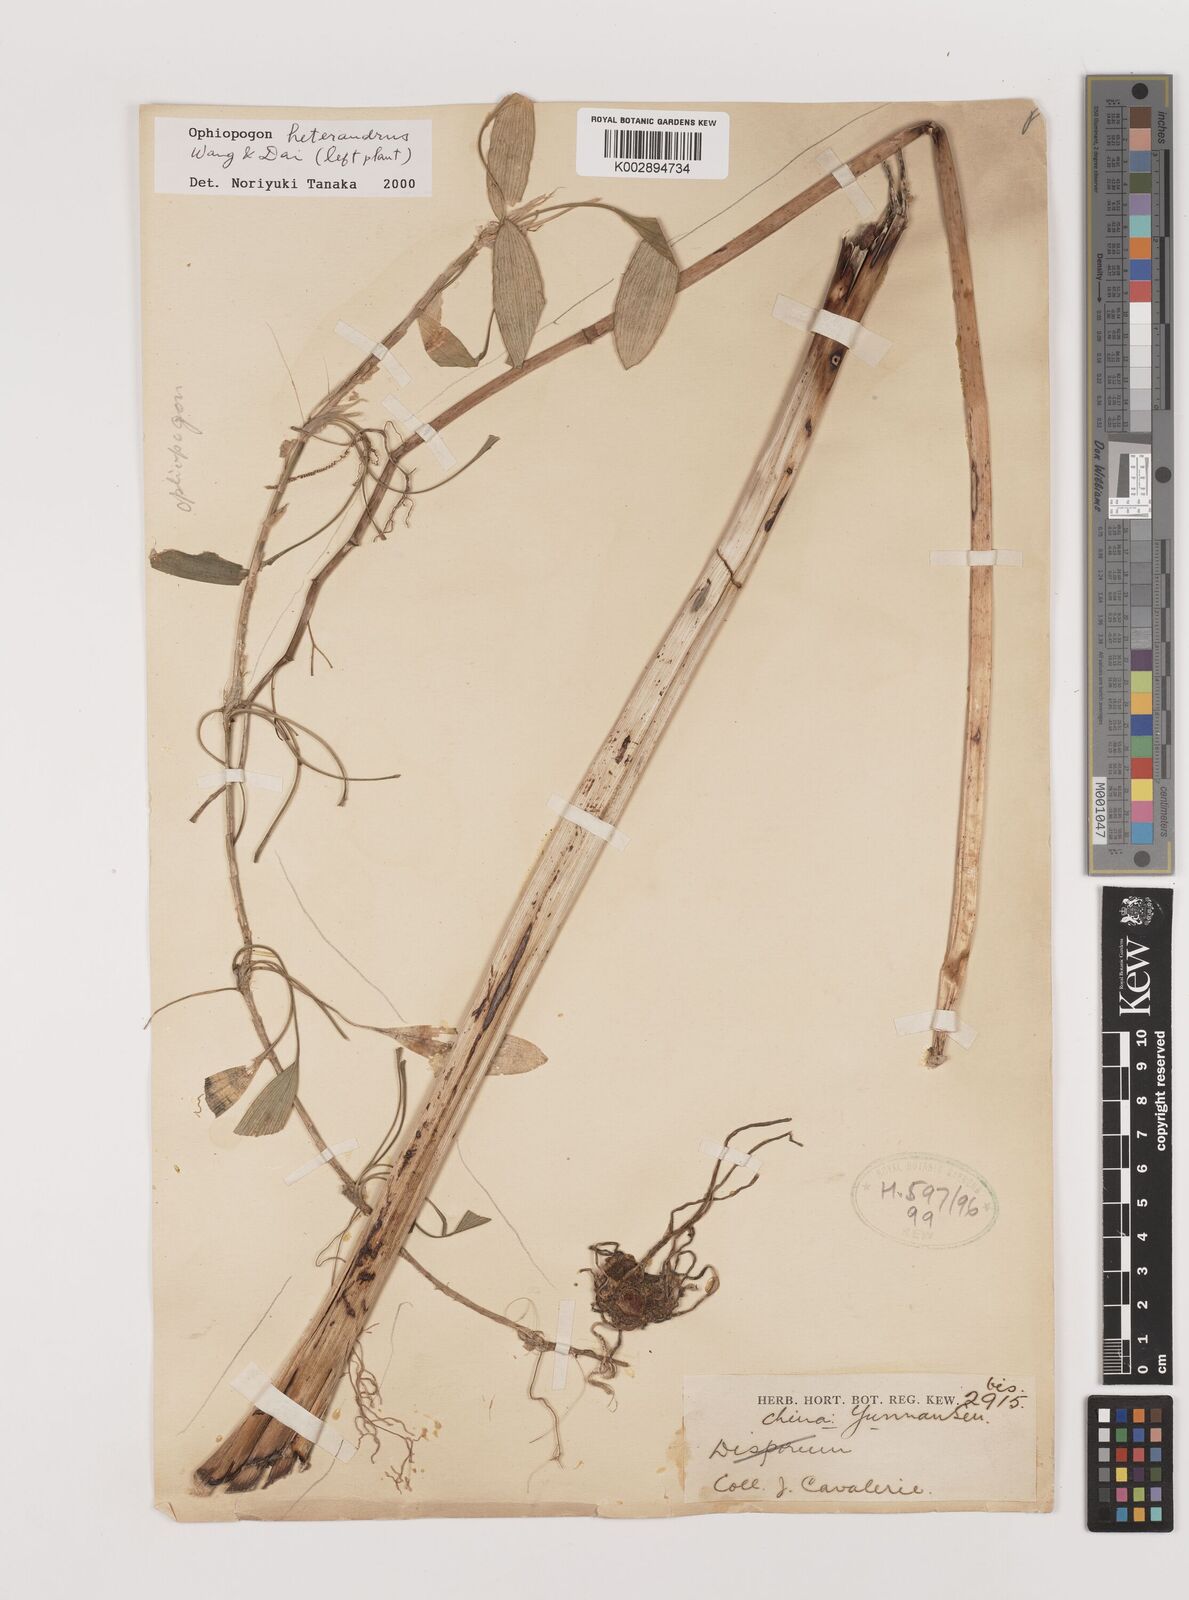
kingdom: Plantae
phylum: Tracheophyta
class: Liliopsida
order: Asparagales
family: Asparagaceae
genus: Ophiopogon
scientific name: Ophiopogon heterandrus
